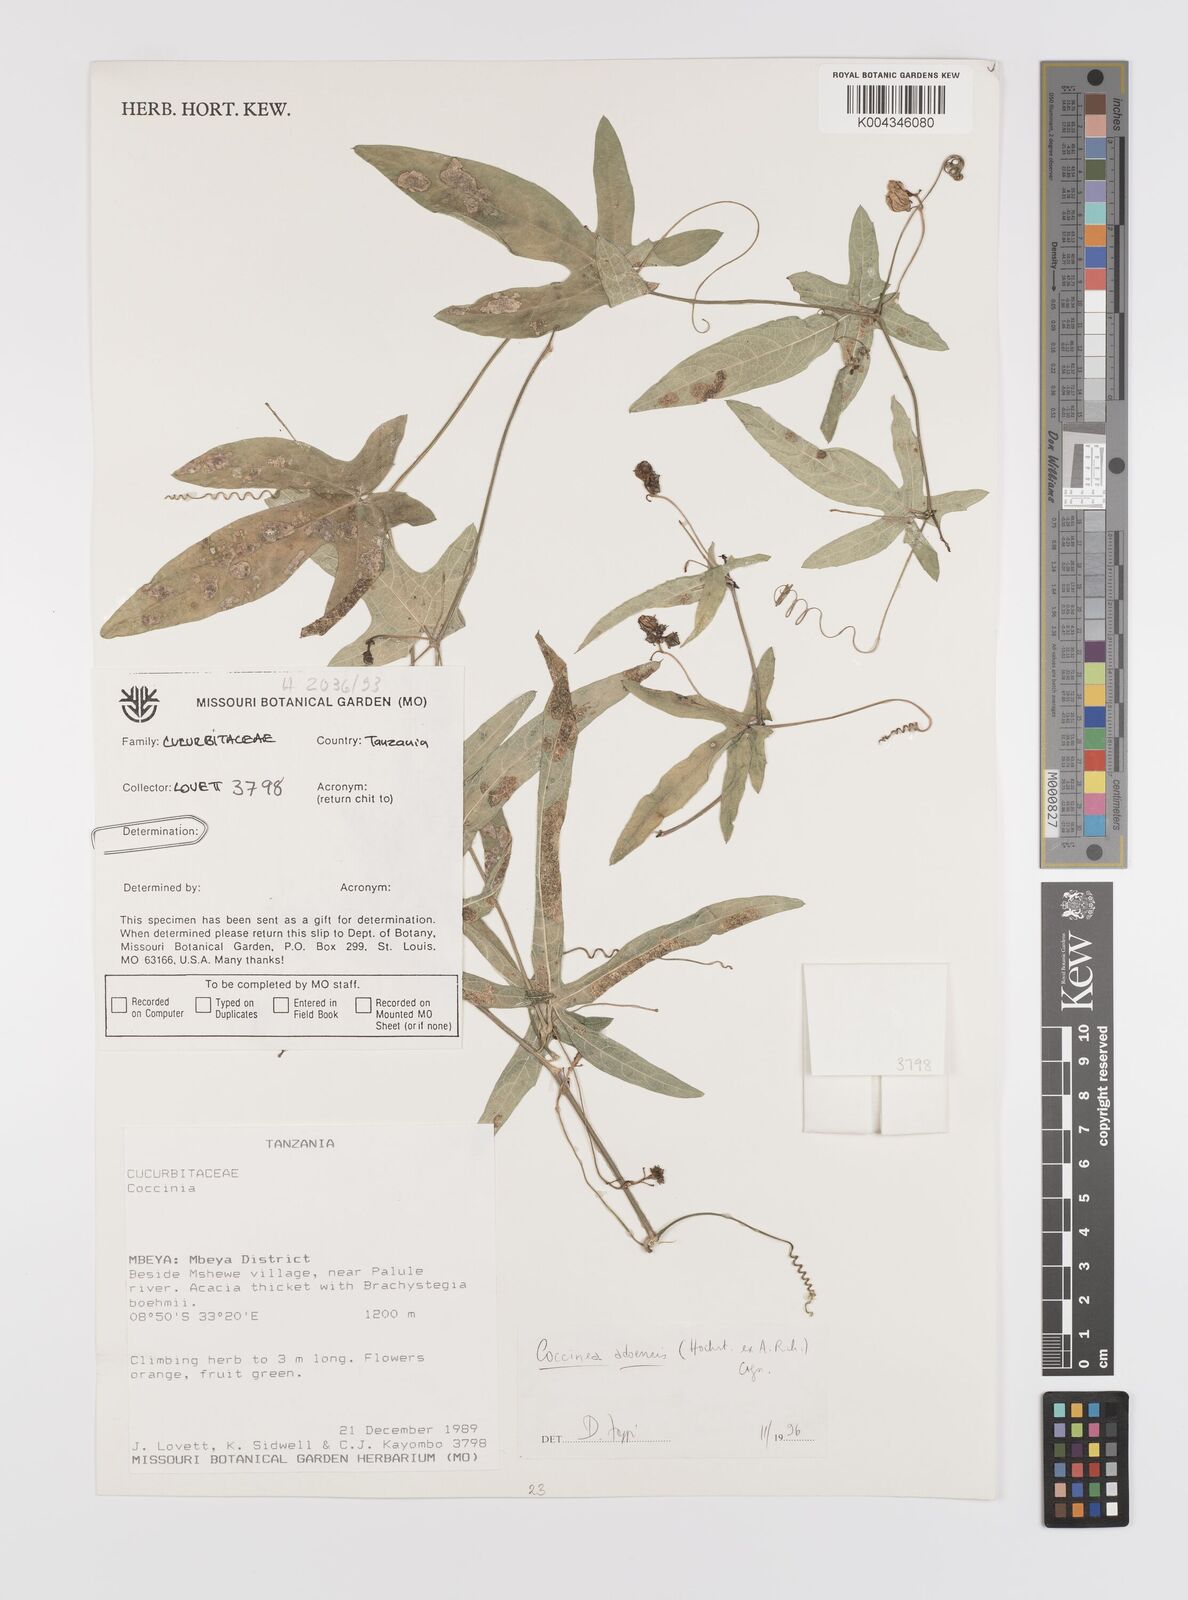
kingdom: Plantae
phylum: Tracheophyta
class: Magnoliopsida
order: Cucurbitales
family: Cucurbitaceae
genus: Coccinia
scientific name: Coccinia adoensis
